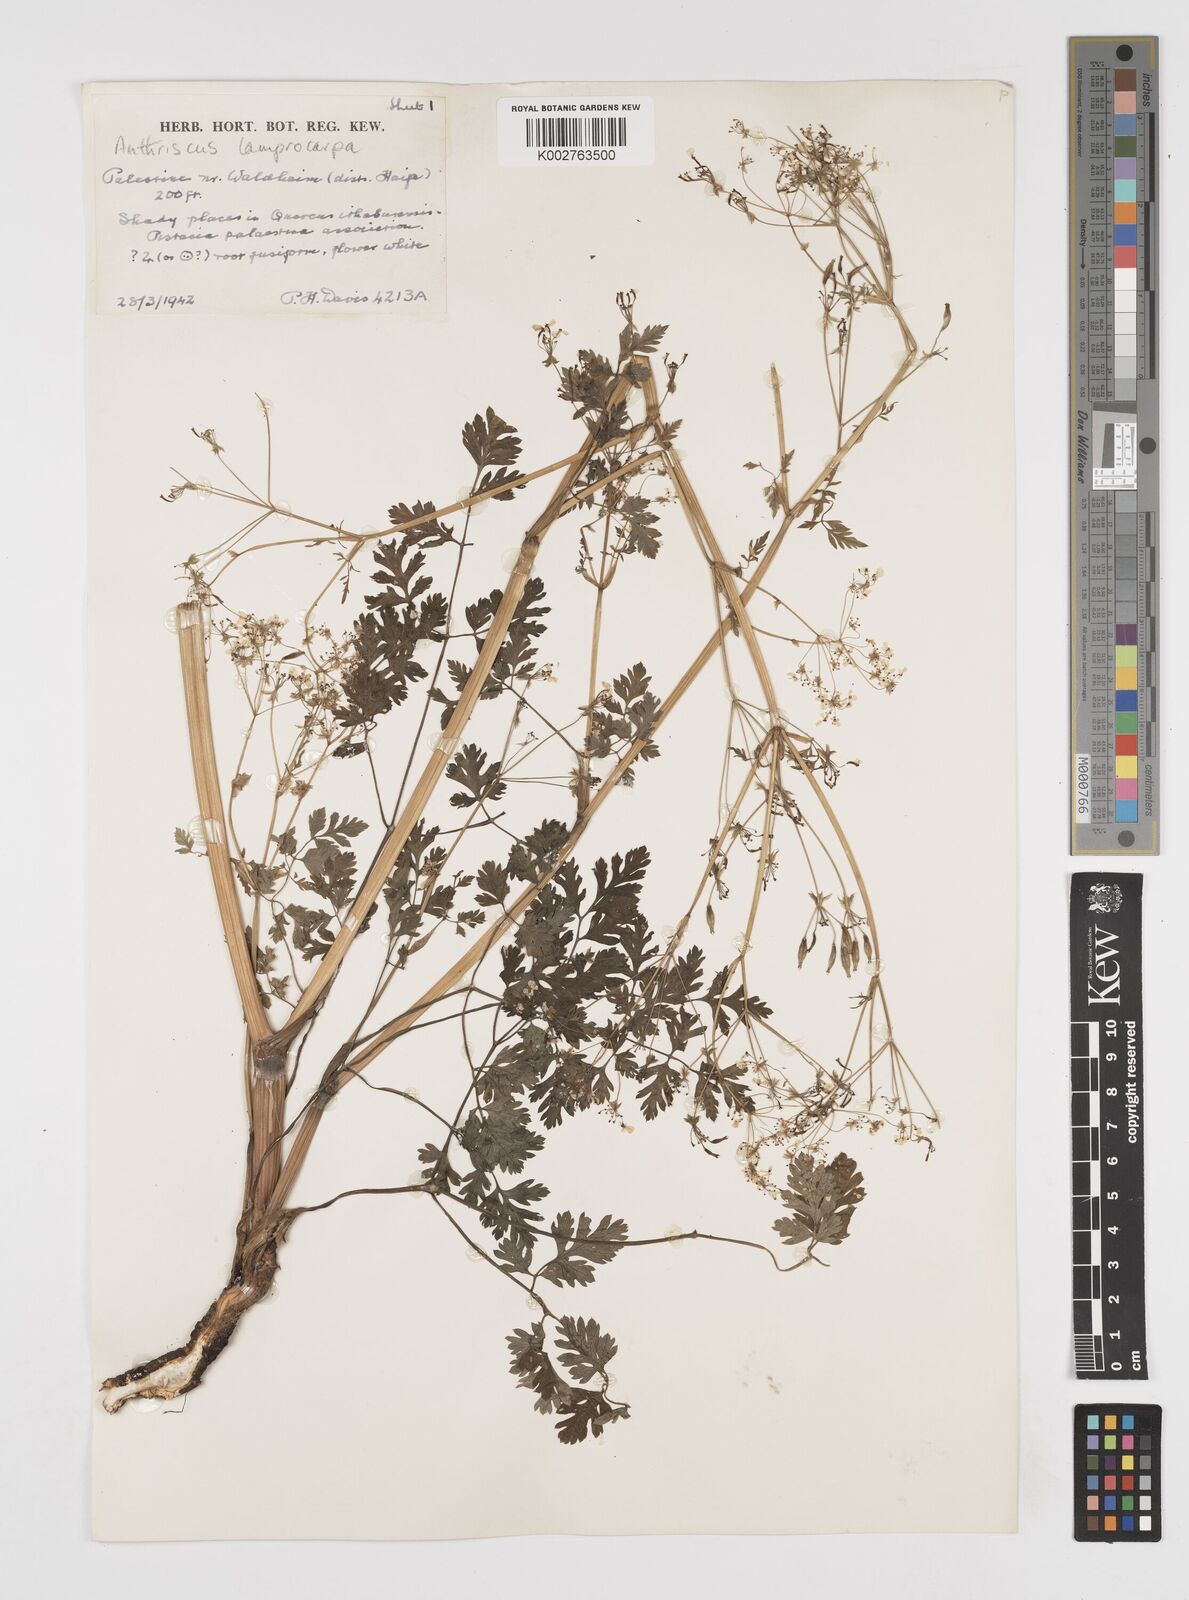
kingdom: Plantae
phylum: Tracheophyta
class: Magnoliopsida
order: Apiales
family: Apiaceae
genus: Anthriscus
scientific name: Anthriscus lamprocarpa
